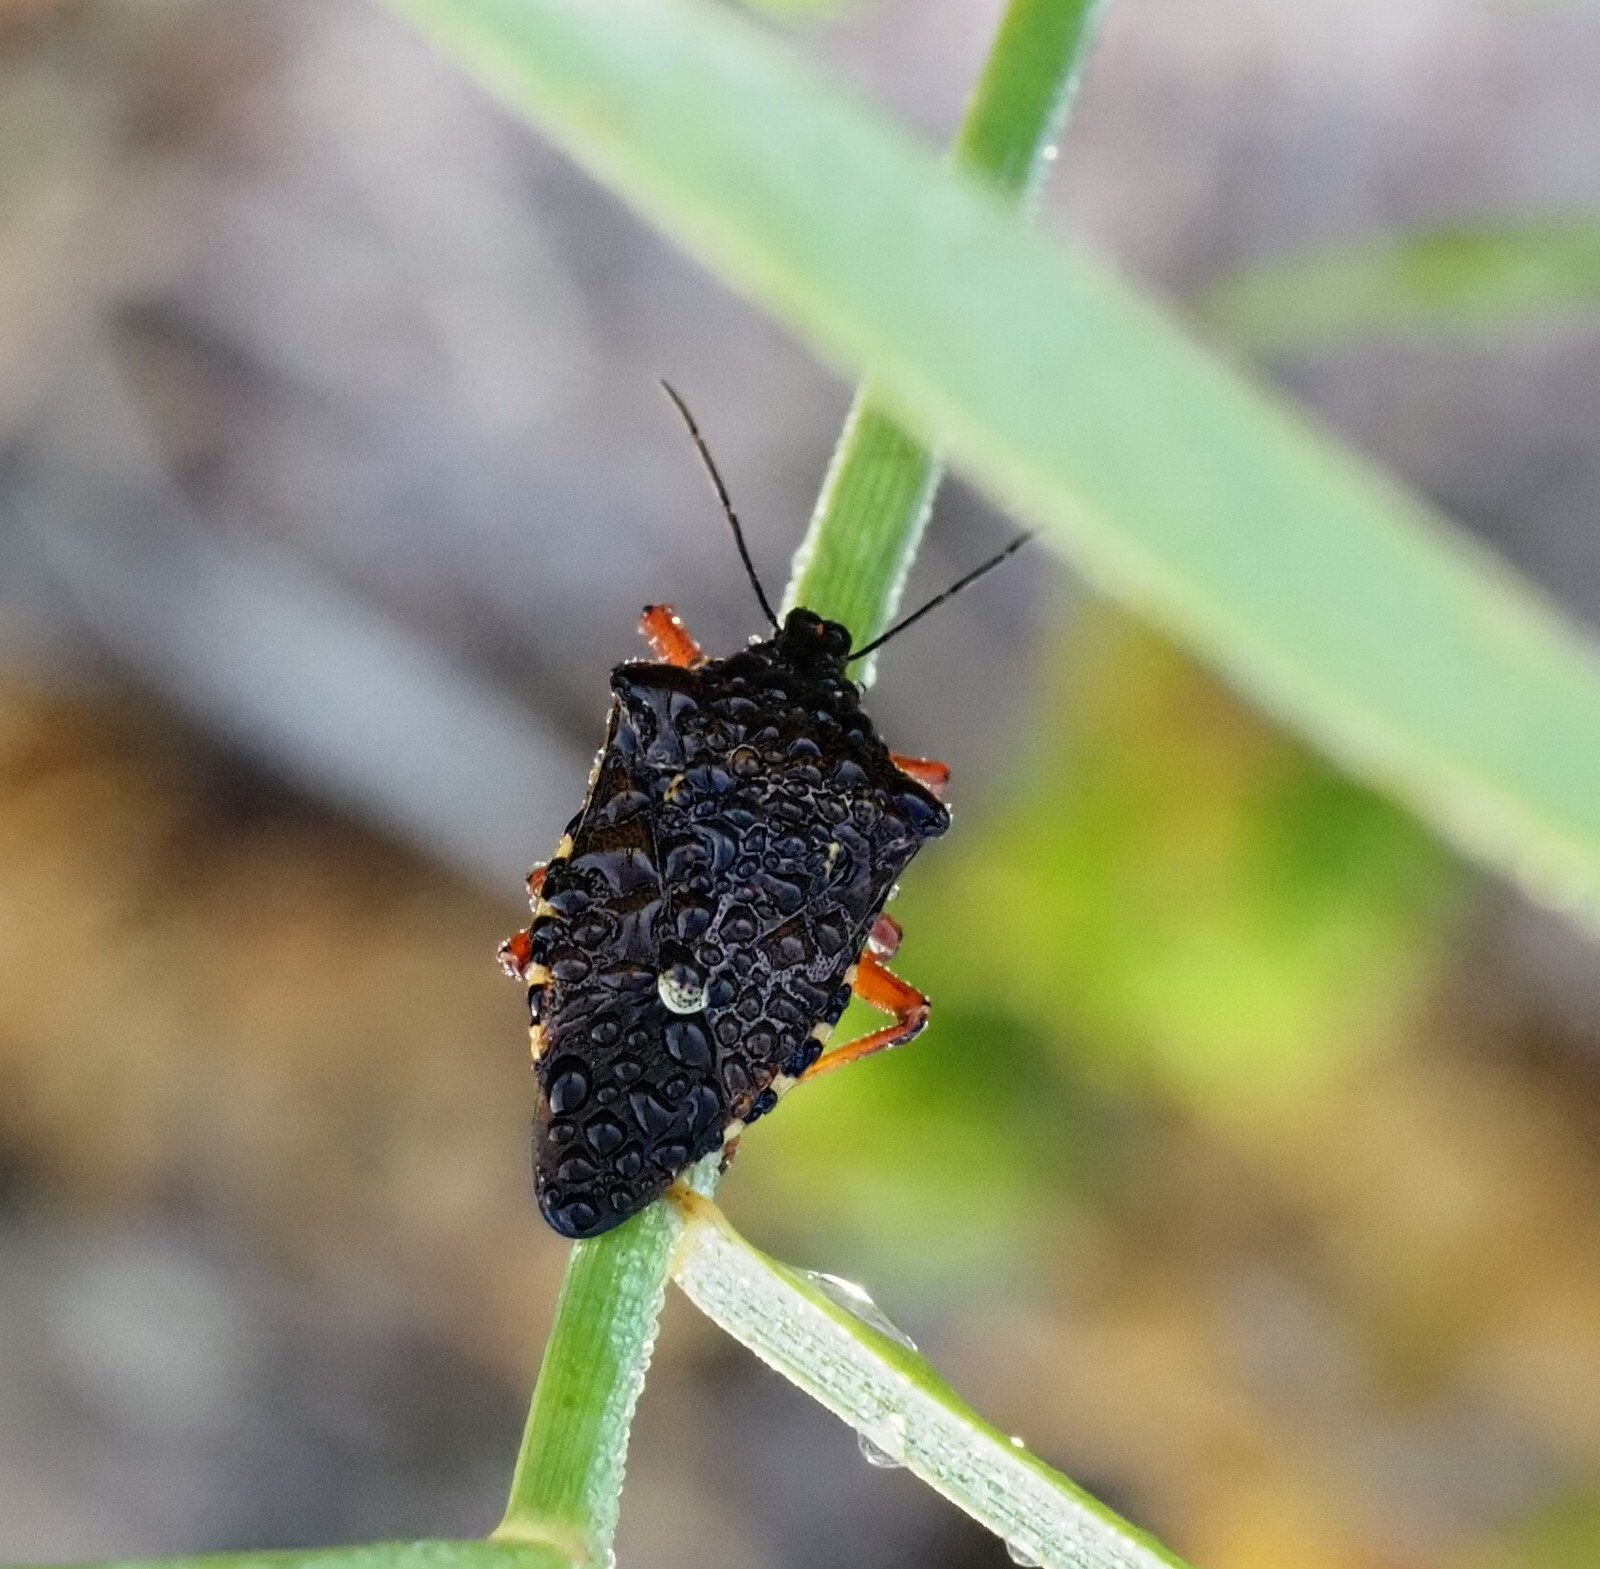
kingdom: Animalia
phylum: Arthropoda
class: Insecta
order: Hemiptera
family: Pentatomidae
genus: Pinthaeus
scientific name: Pinthaeus sanguinipes
